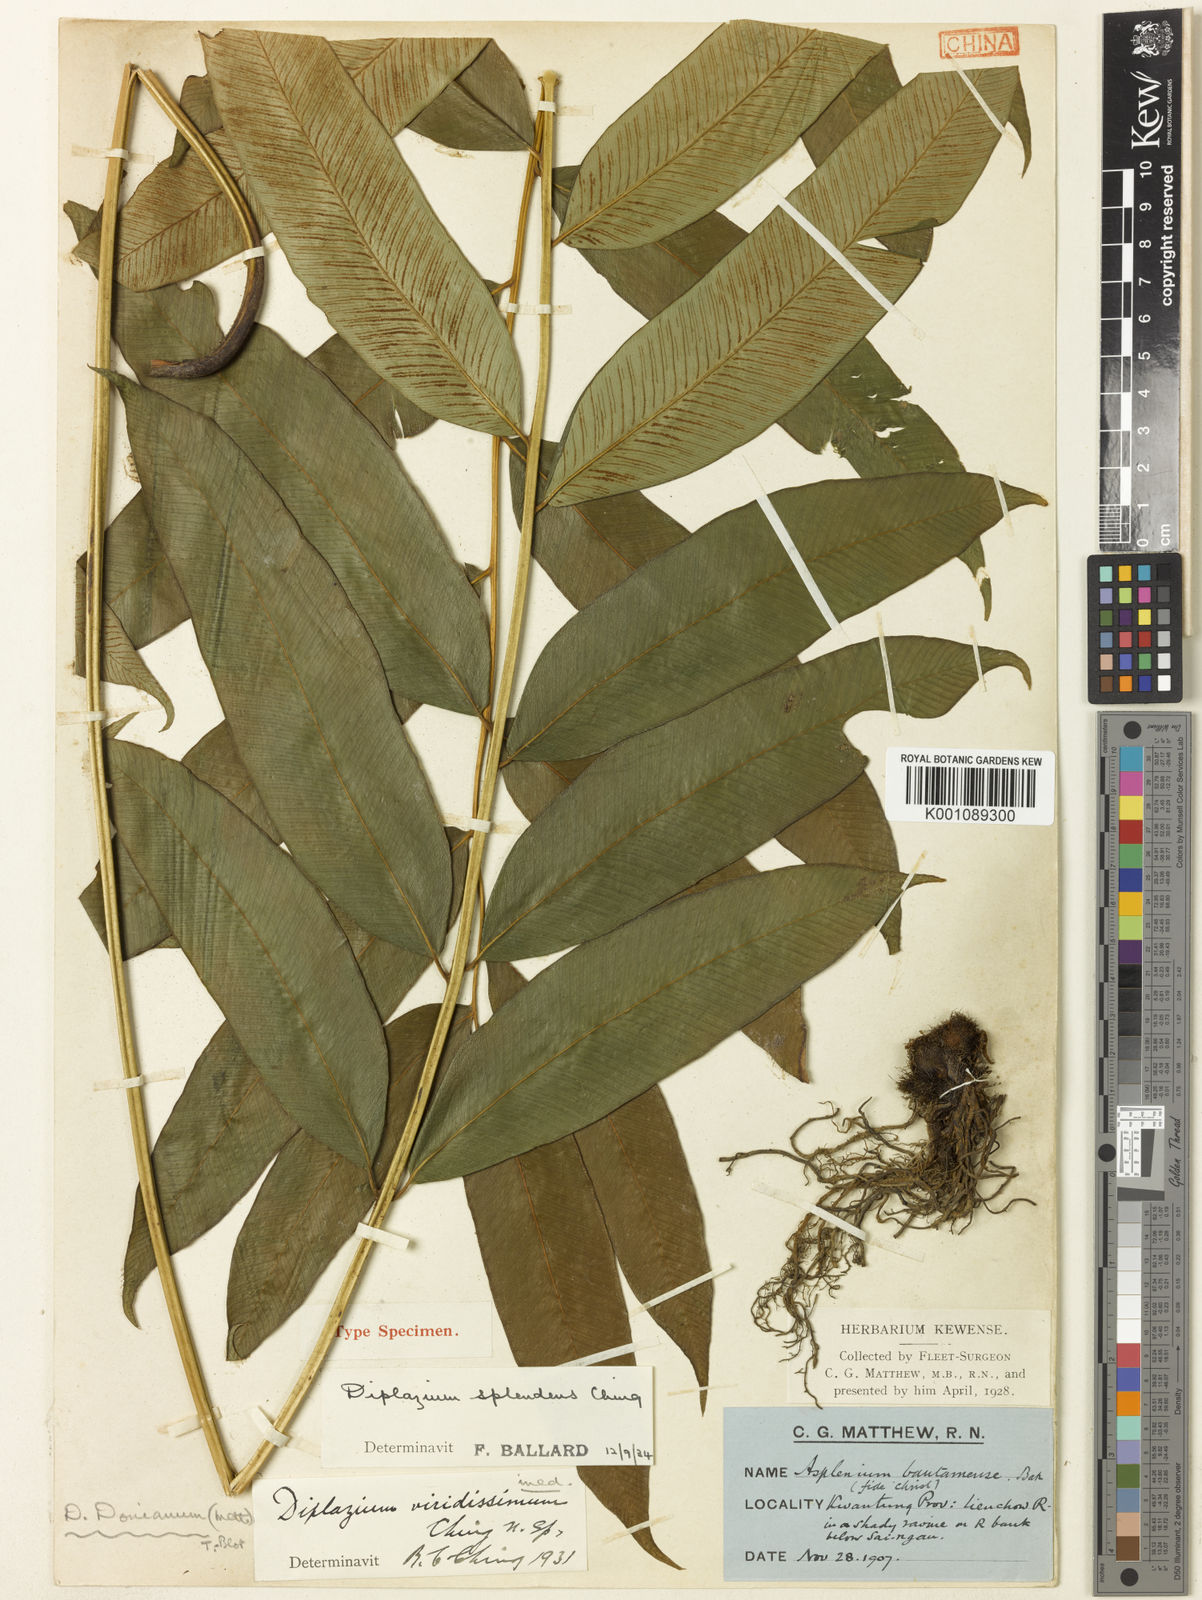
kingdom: Plantae
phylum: Tracheophyta
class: Polypodiopsida
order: Polypodiales
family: Athyriaceae
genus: Diplazium
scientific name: Diplazium lineolatum
